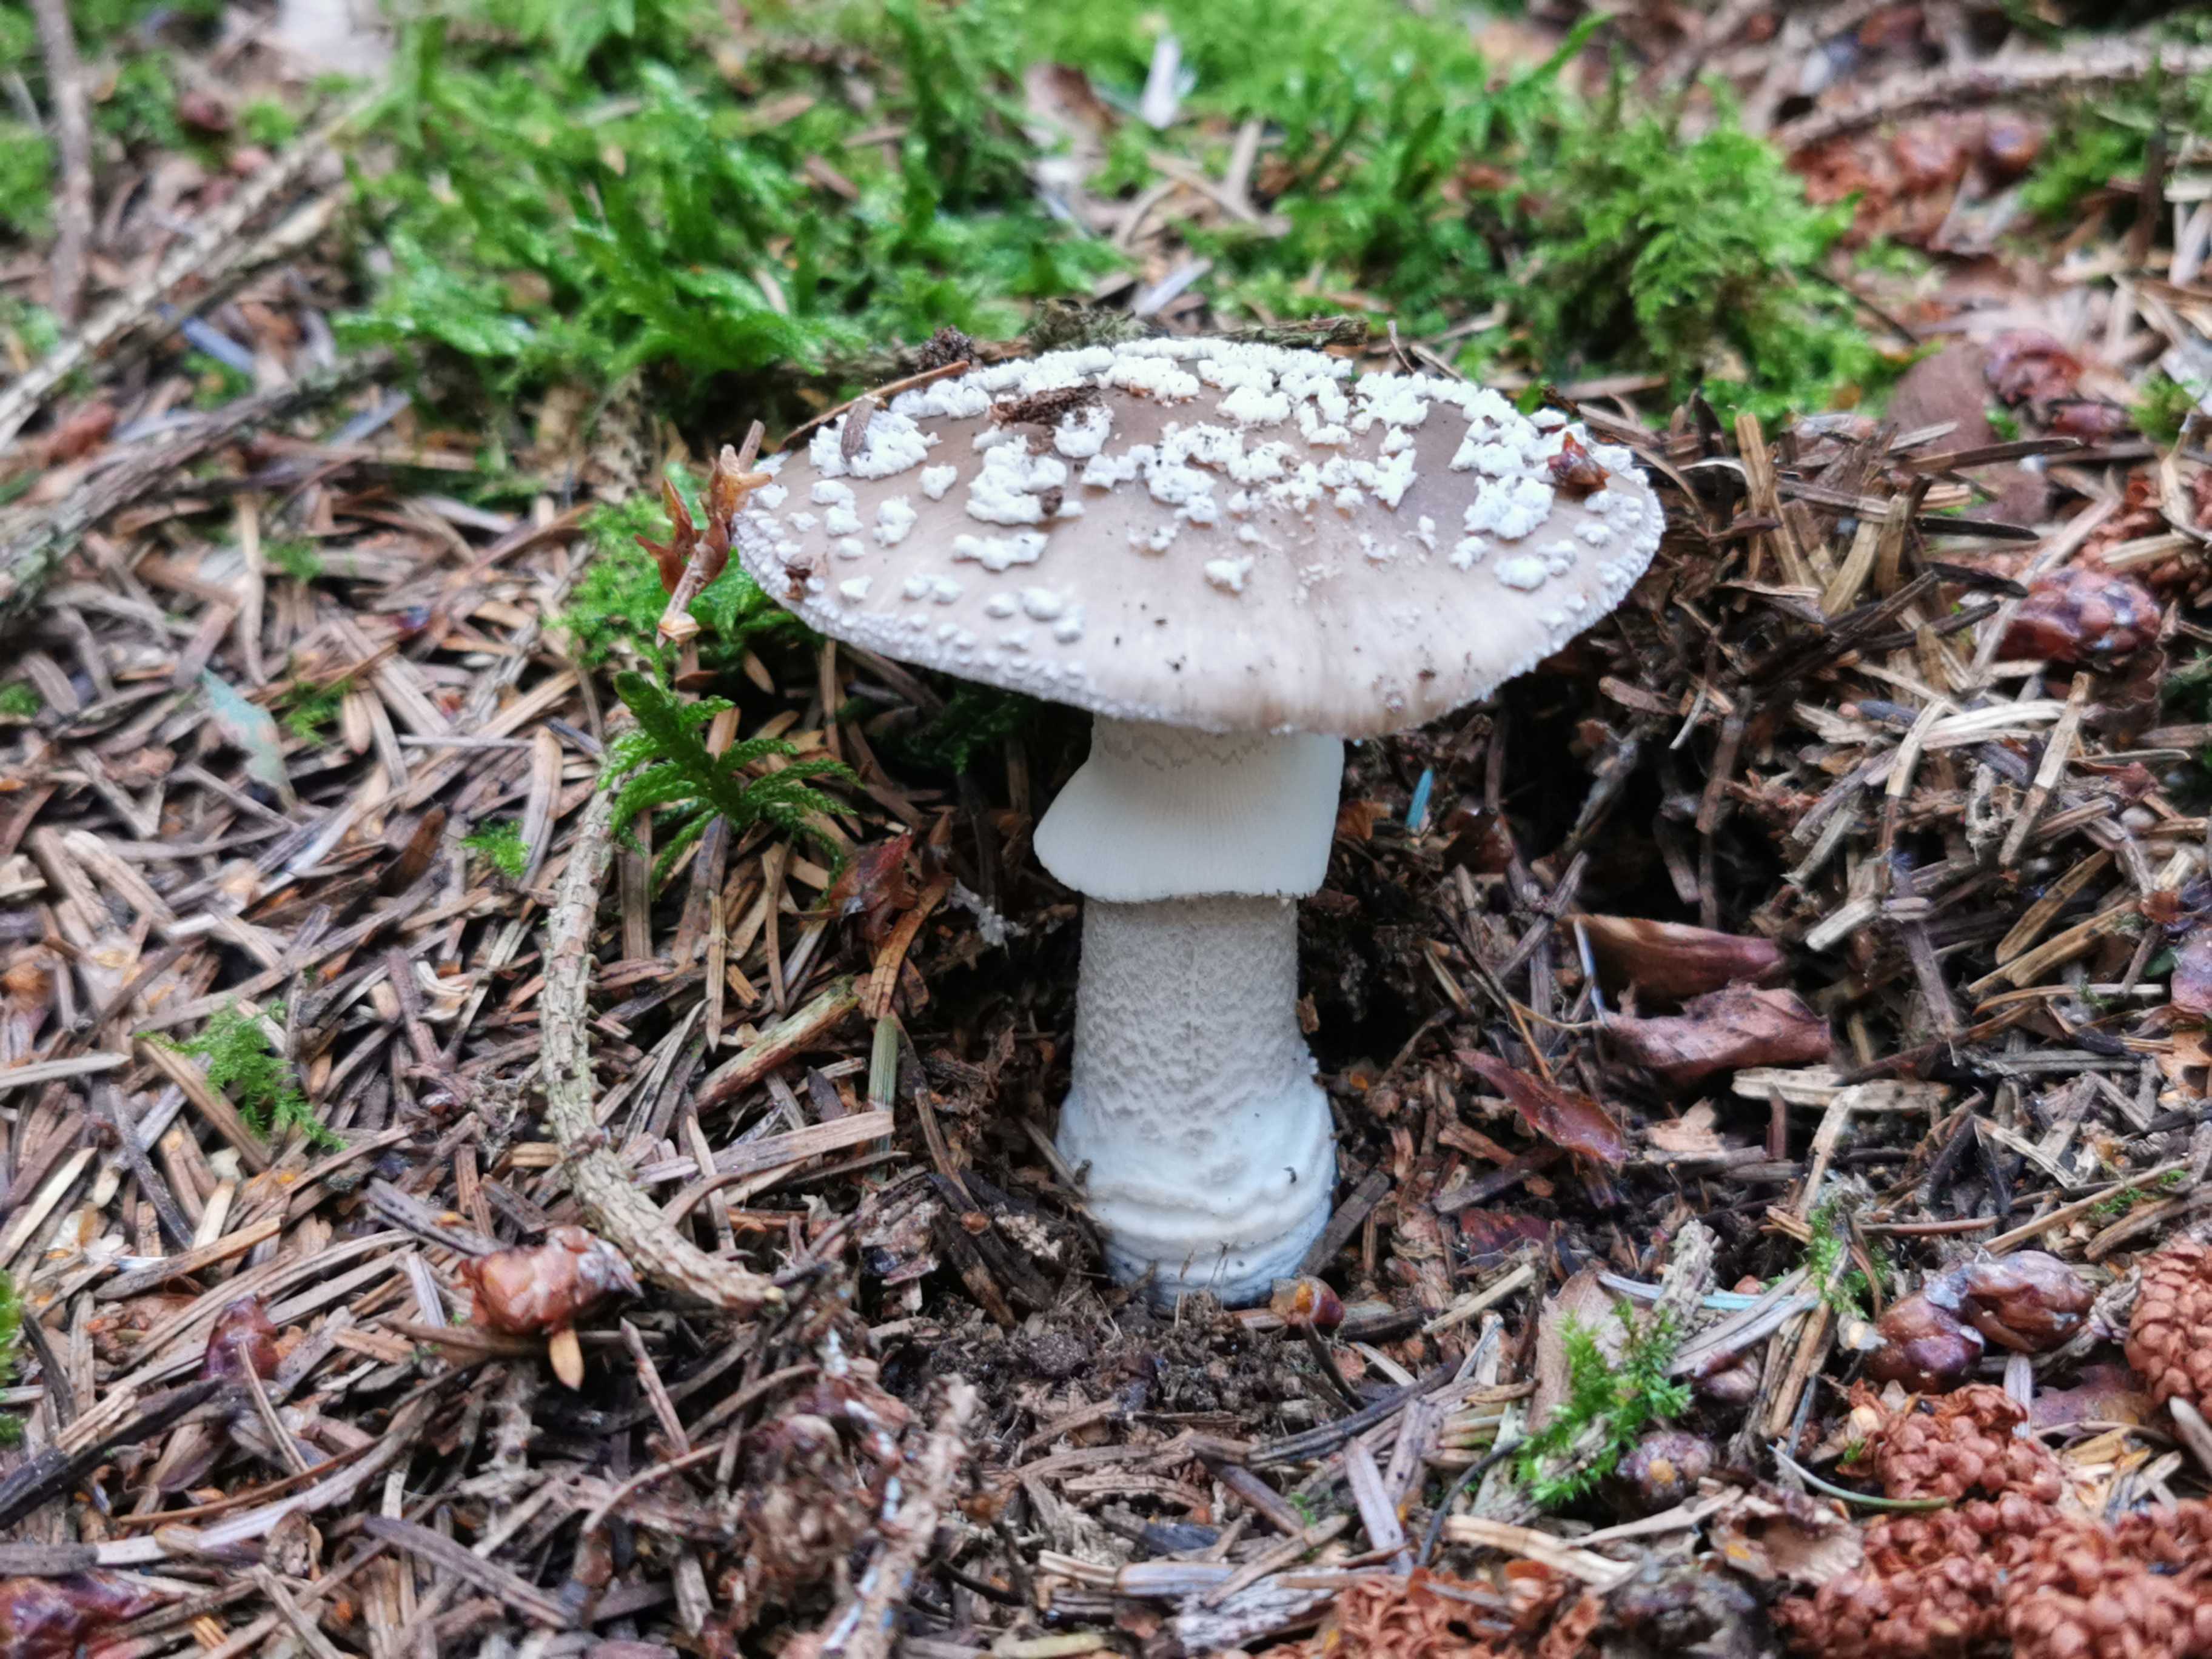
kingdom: Fungi
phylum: Basidiomycota
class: Agaricomycetes
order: Agaricales
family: Amanitaceae
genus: Amanita
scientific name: Amanita
